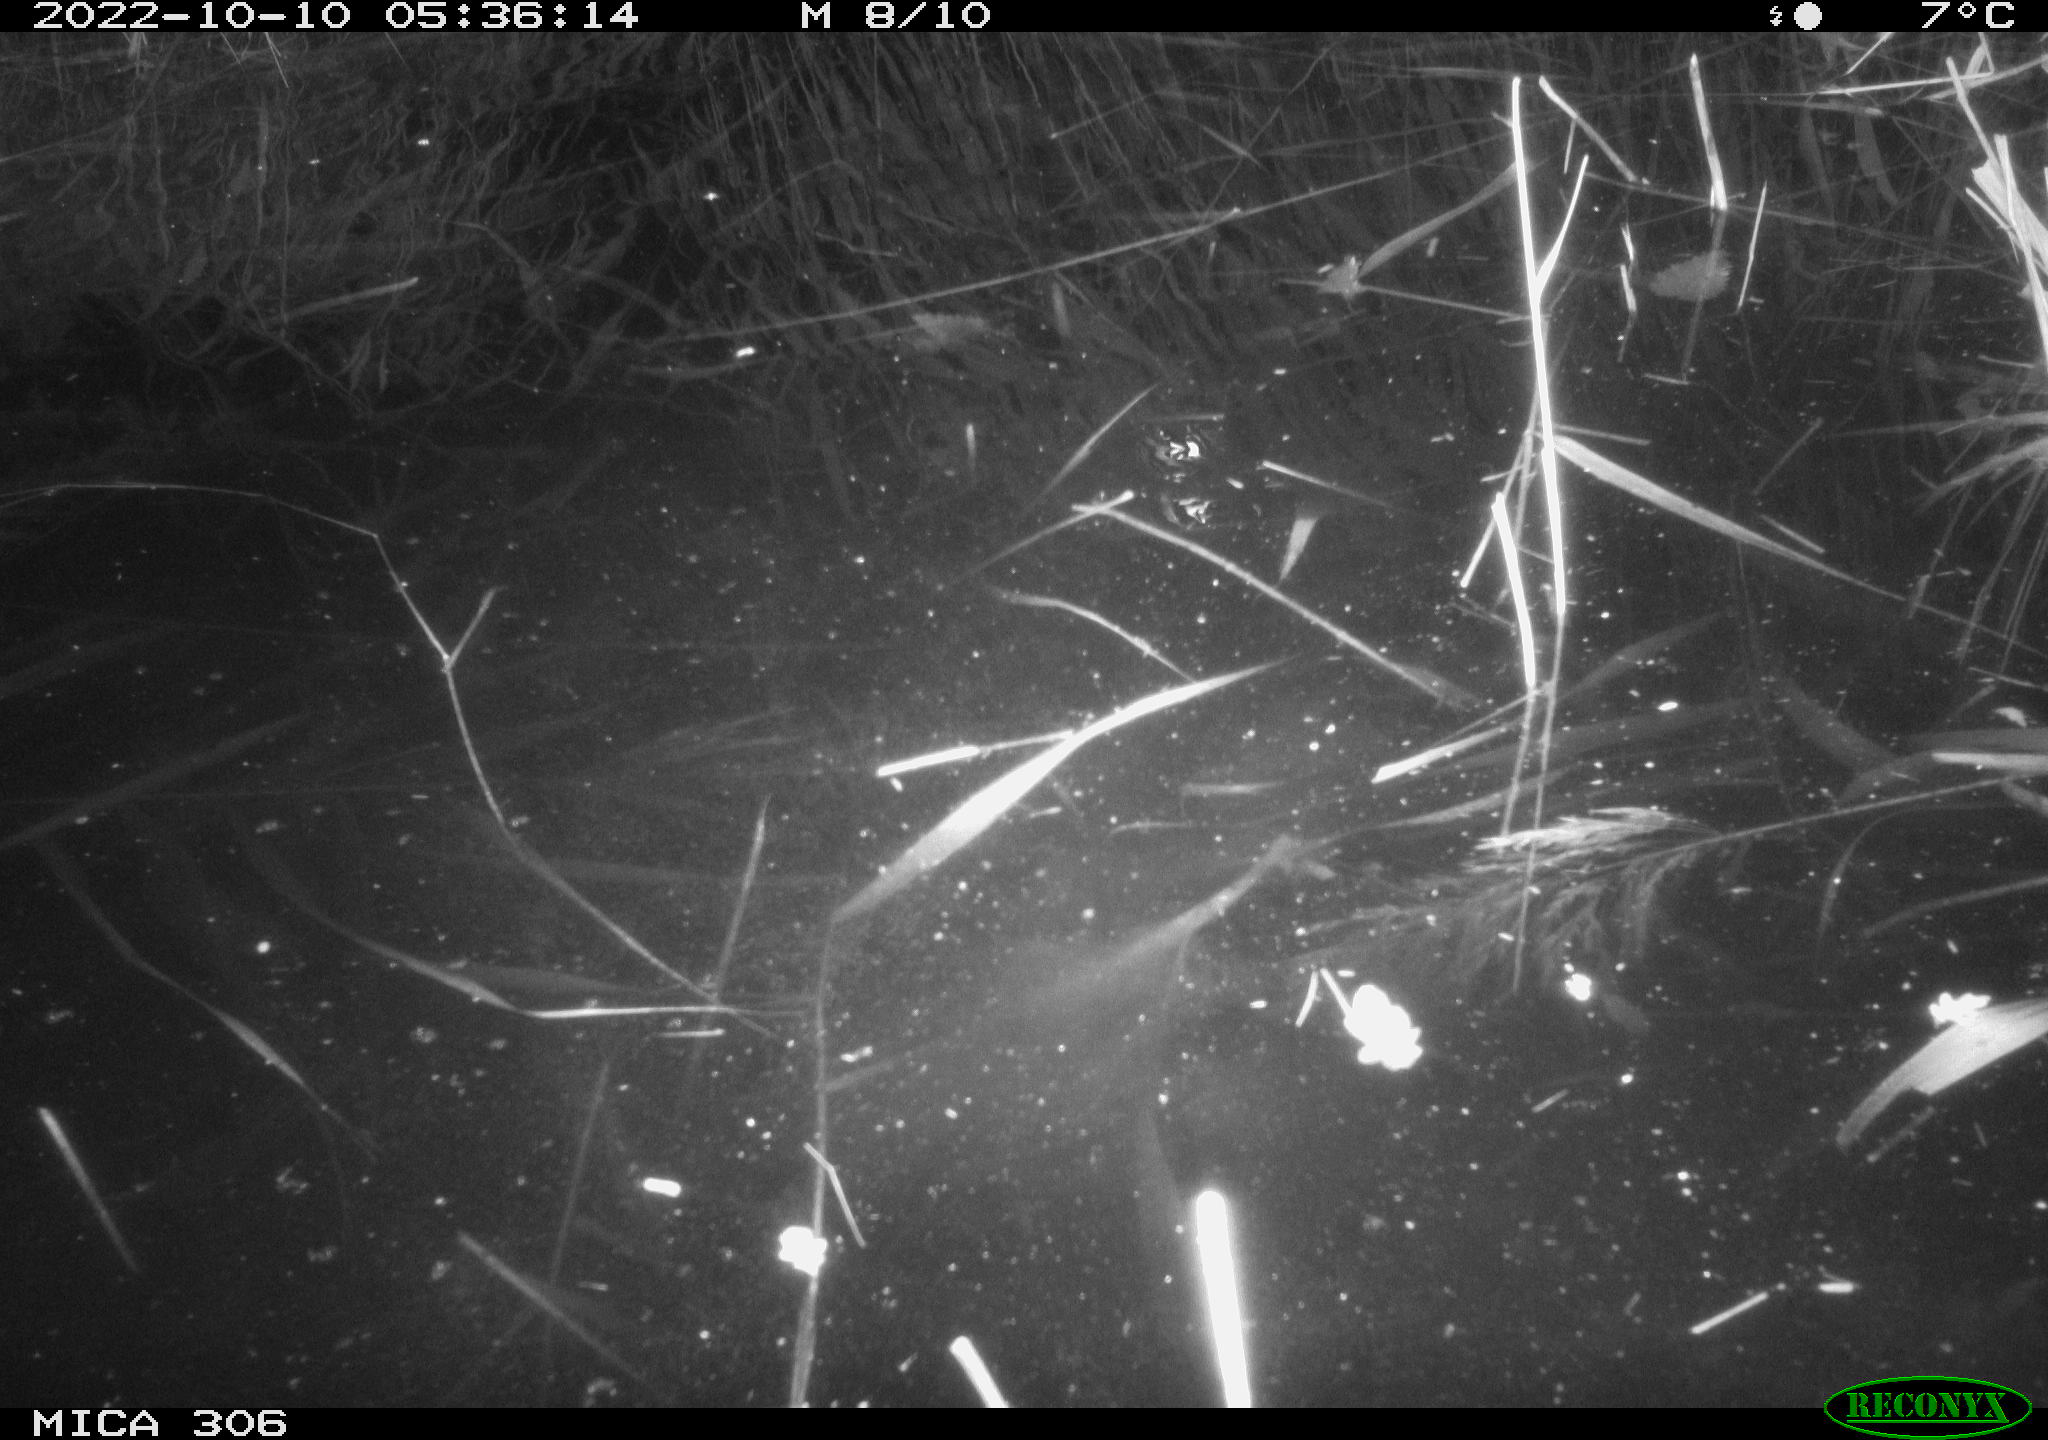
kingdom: Animalia
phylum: Chordata
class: Mammalia
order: Rodentia
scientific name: Rodentia
